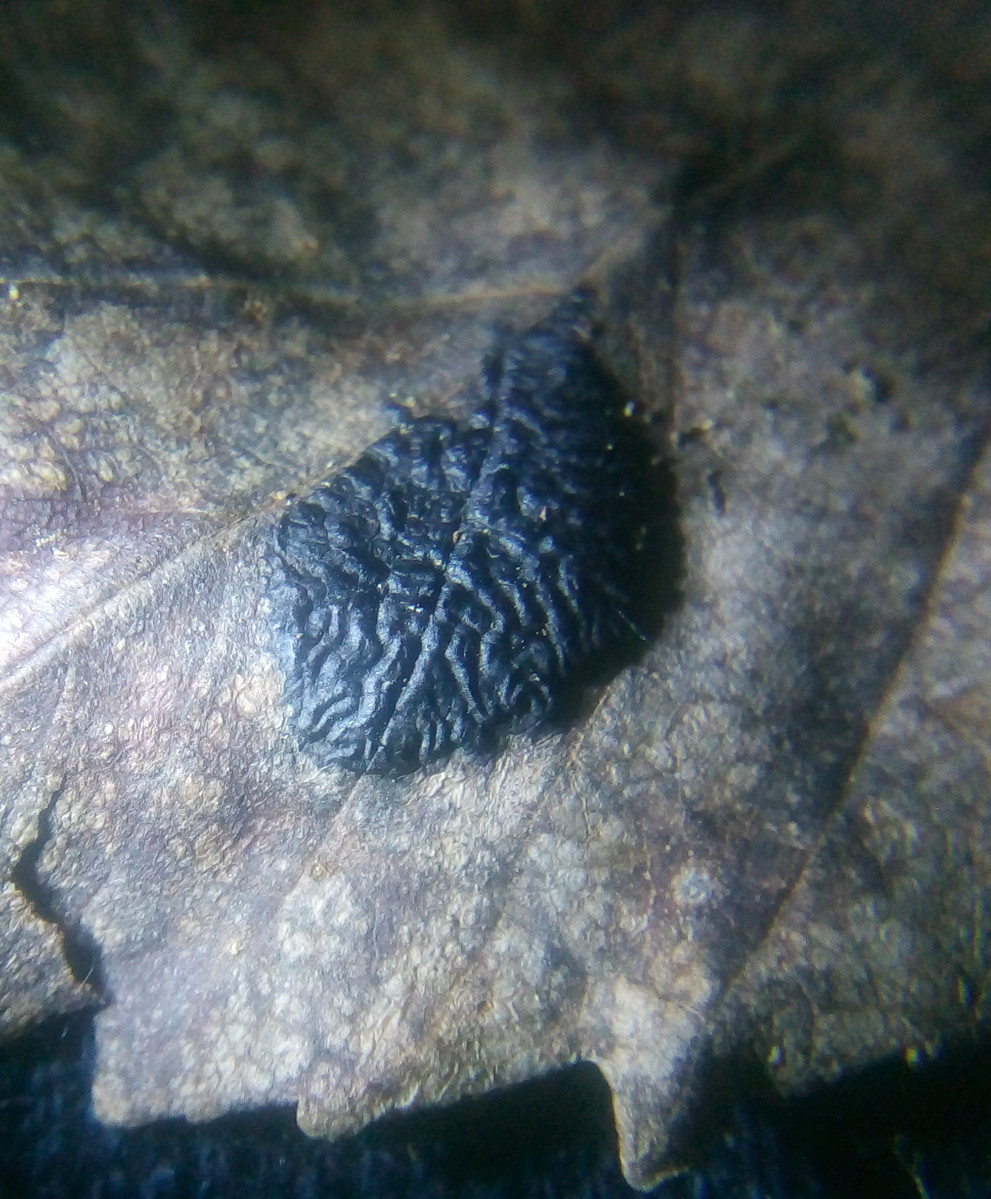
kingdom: Fungi
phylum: Ascomycota
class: Leotiomycetes
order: Rhytismatales
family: Rhytismataceae
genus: Rhytisma
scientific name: Rhytisma acerinum
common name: ahorn-rynkeplet
